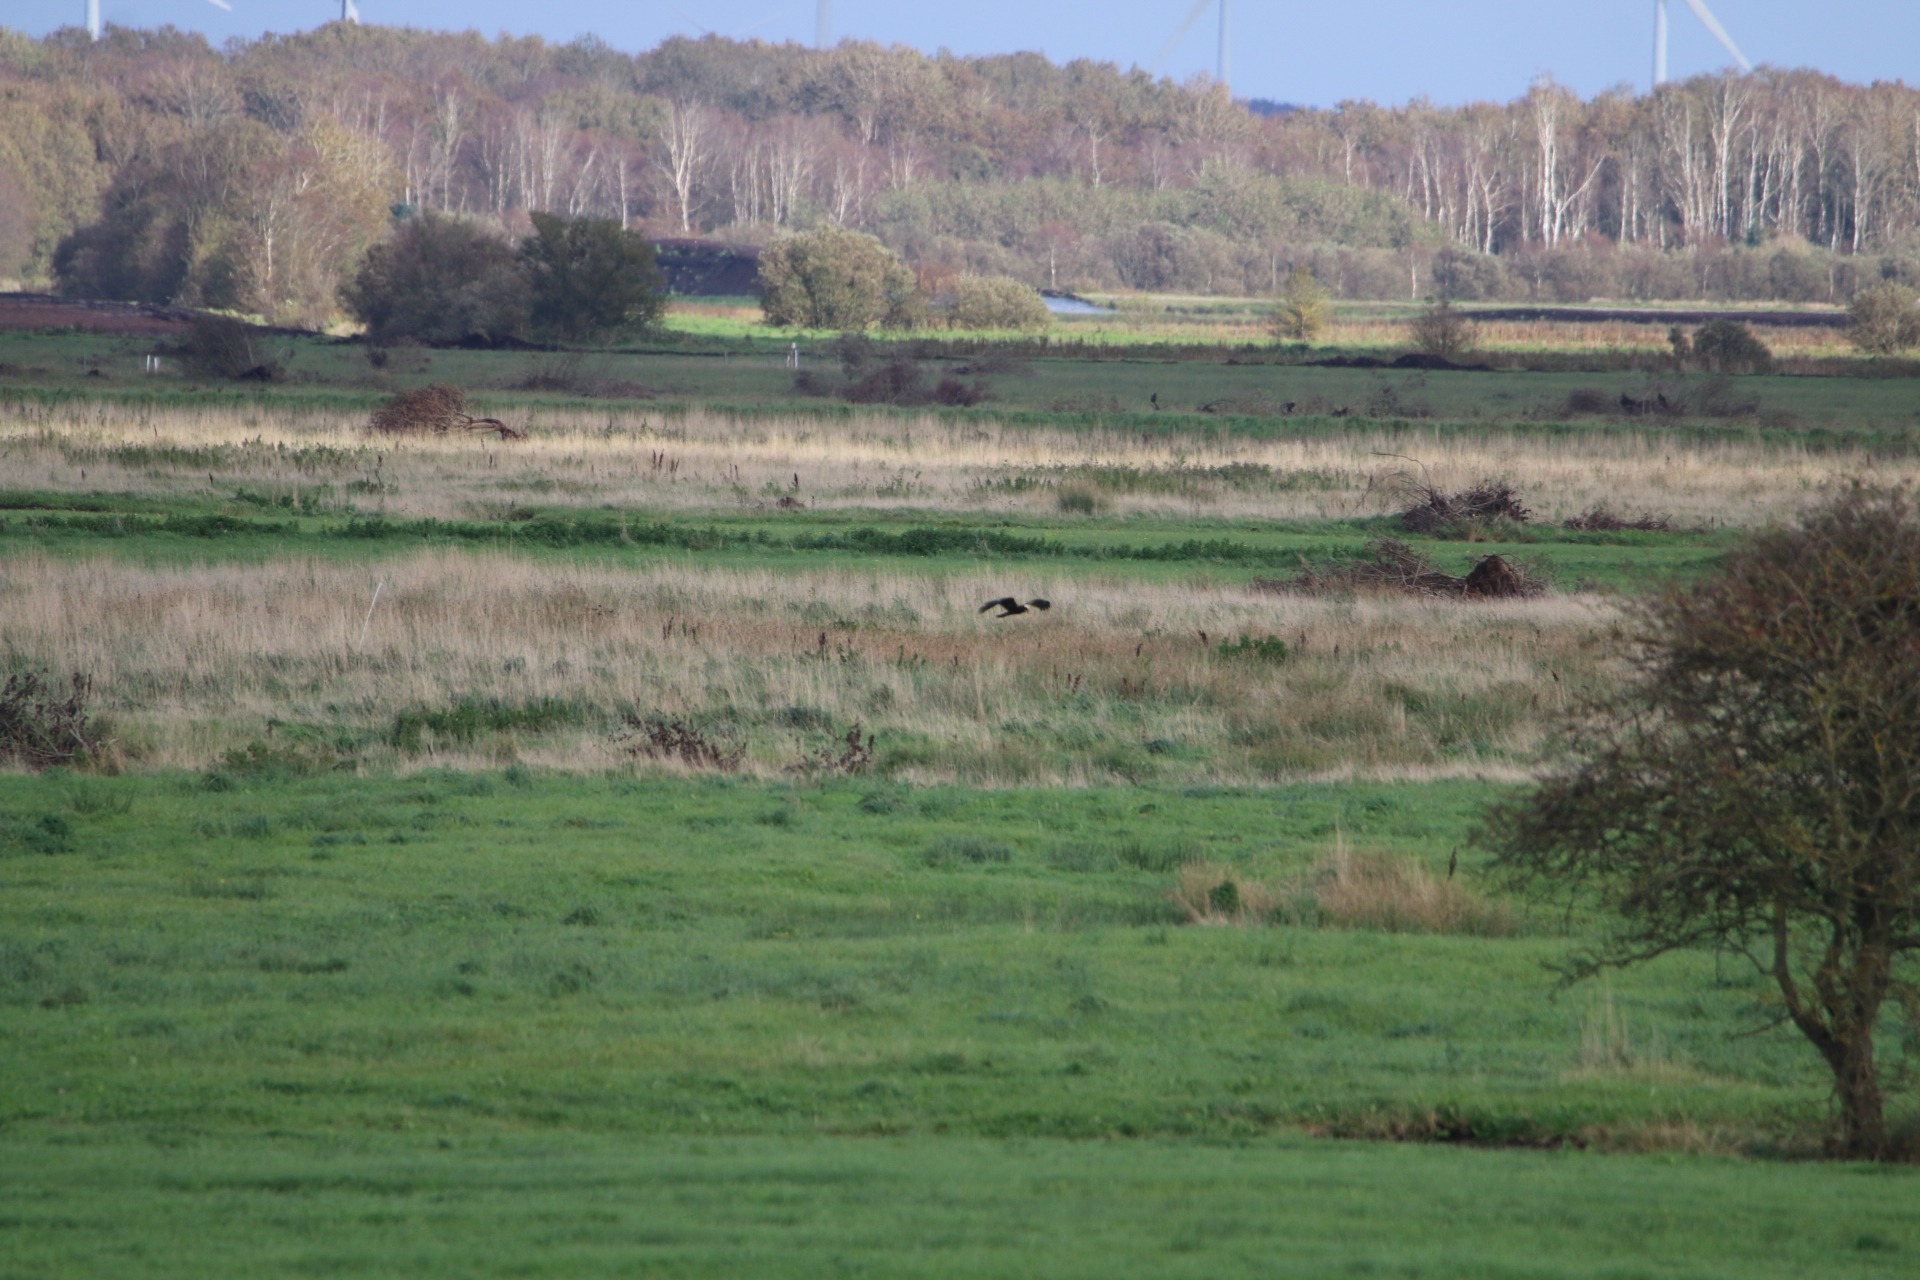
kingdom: Animalia
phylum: Chordata
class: Aves
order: Accipitriformes
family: Accipitridae
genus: Circus
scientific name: Circus aeruginosus
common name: Rørhøg
